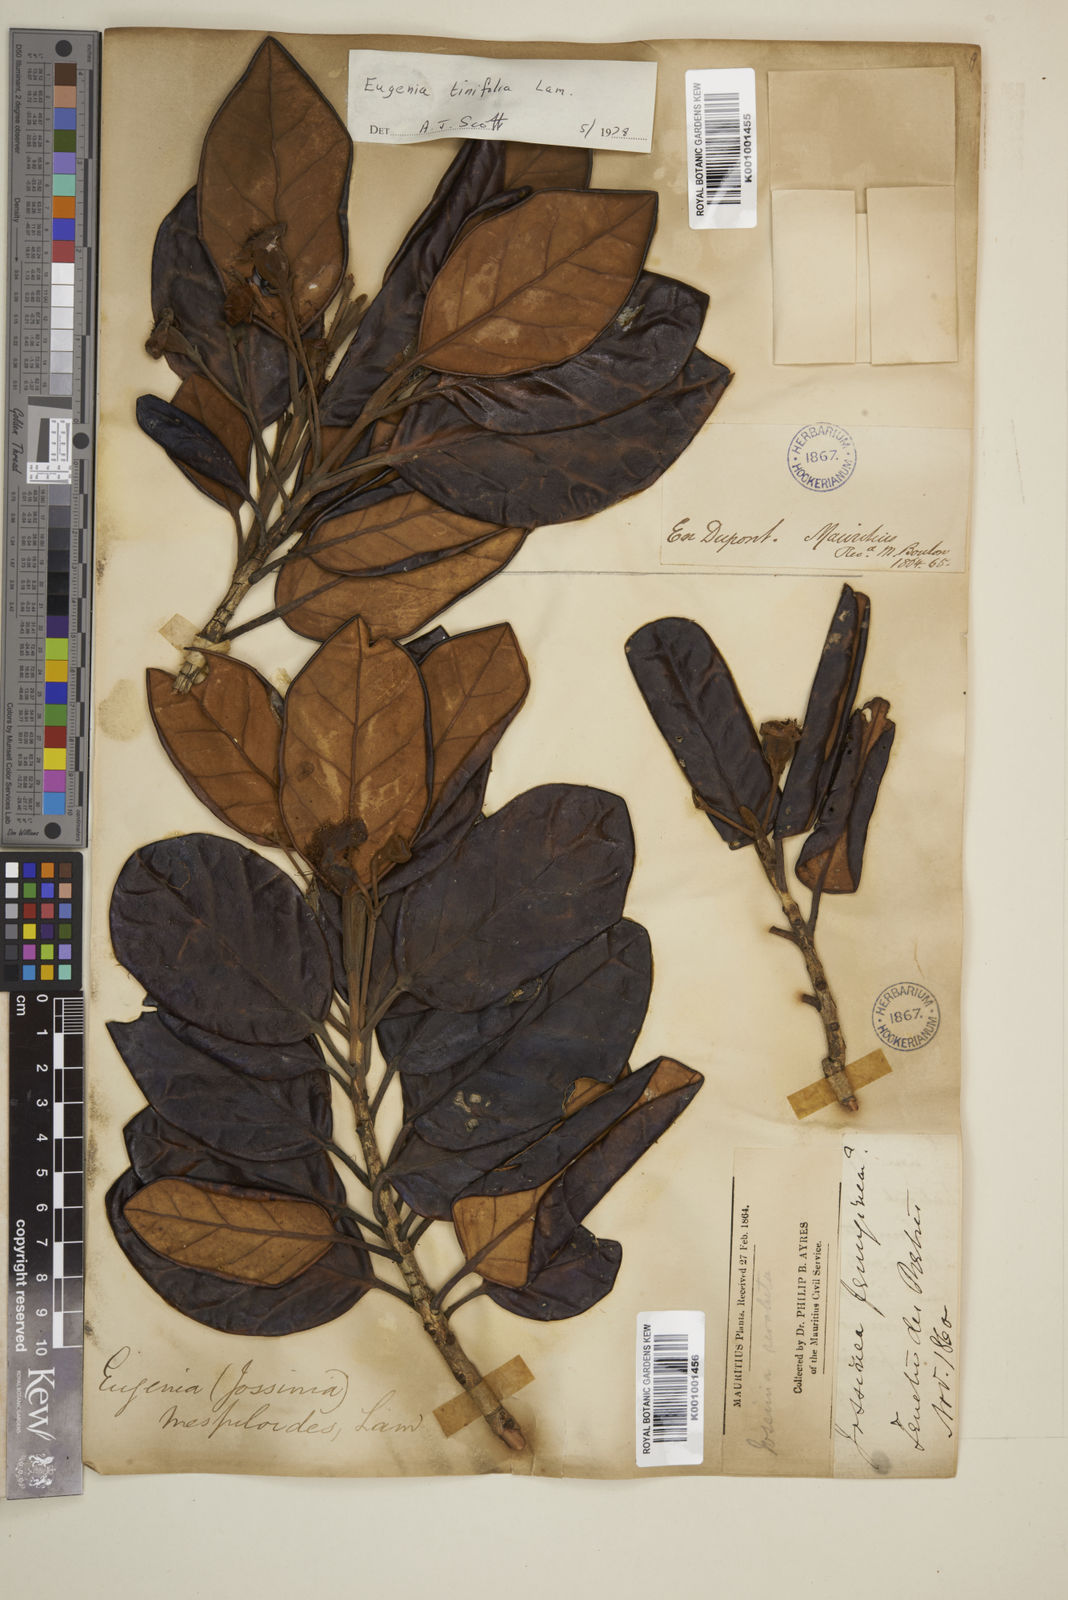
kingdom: Plantae
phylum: Tracheophyta
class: Magnoliopsida
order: Myrtales
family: Myrtaceae
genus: Eugenia
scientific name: Eugenia tinifolia
